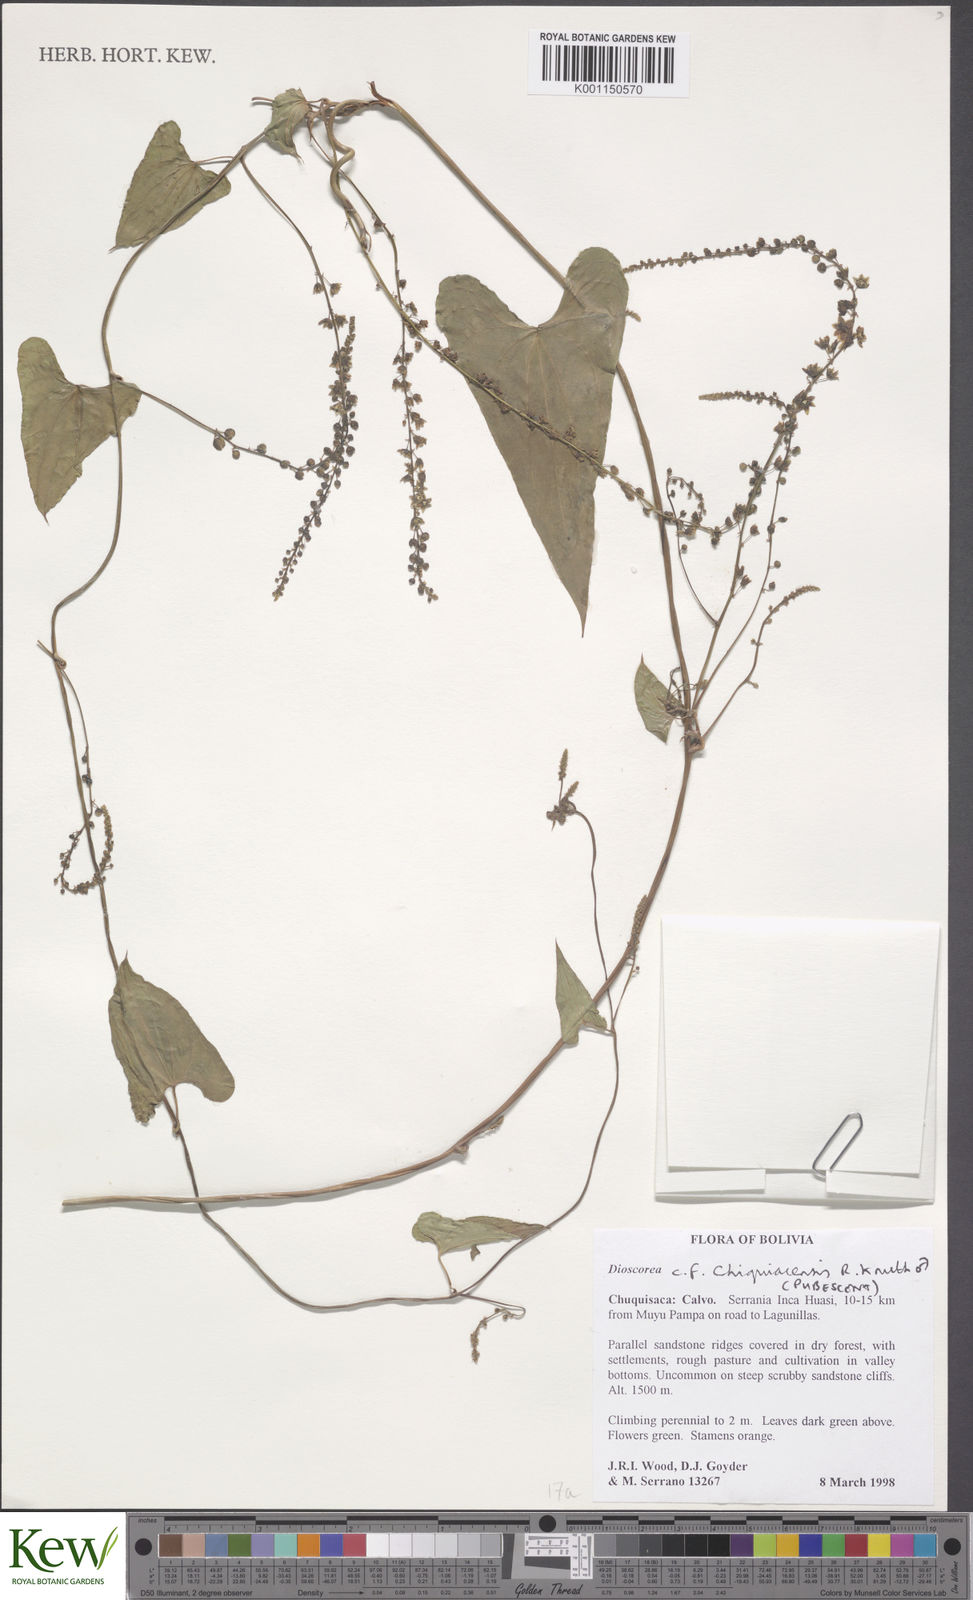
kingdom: Plantae
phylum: Tracheophyta
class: Liliopsida
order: Dioscoreales
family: Dioscoreaceae
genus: Dioscorea
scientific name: Dioscorea hieronymi
